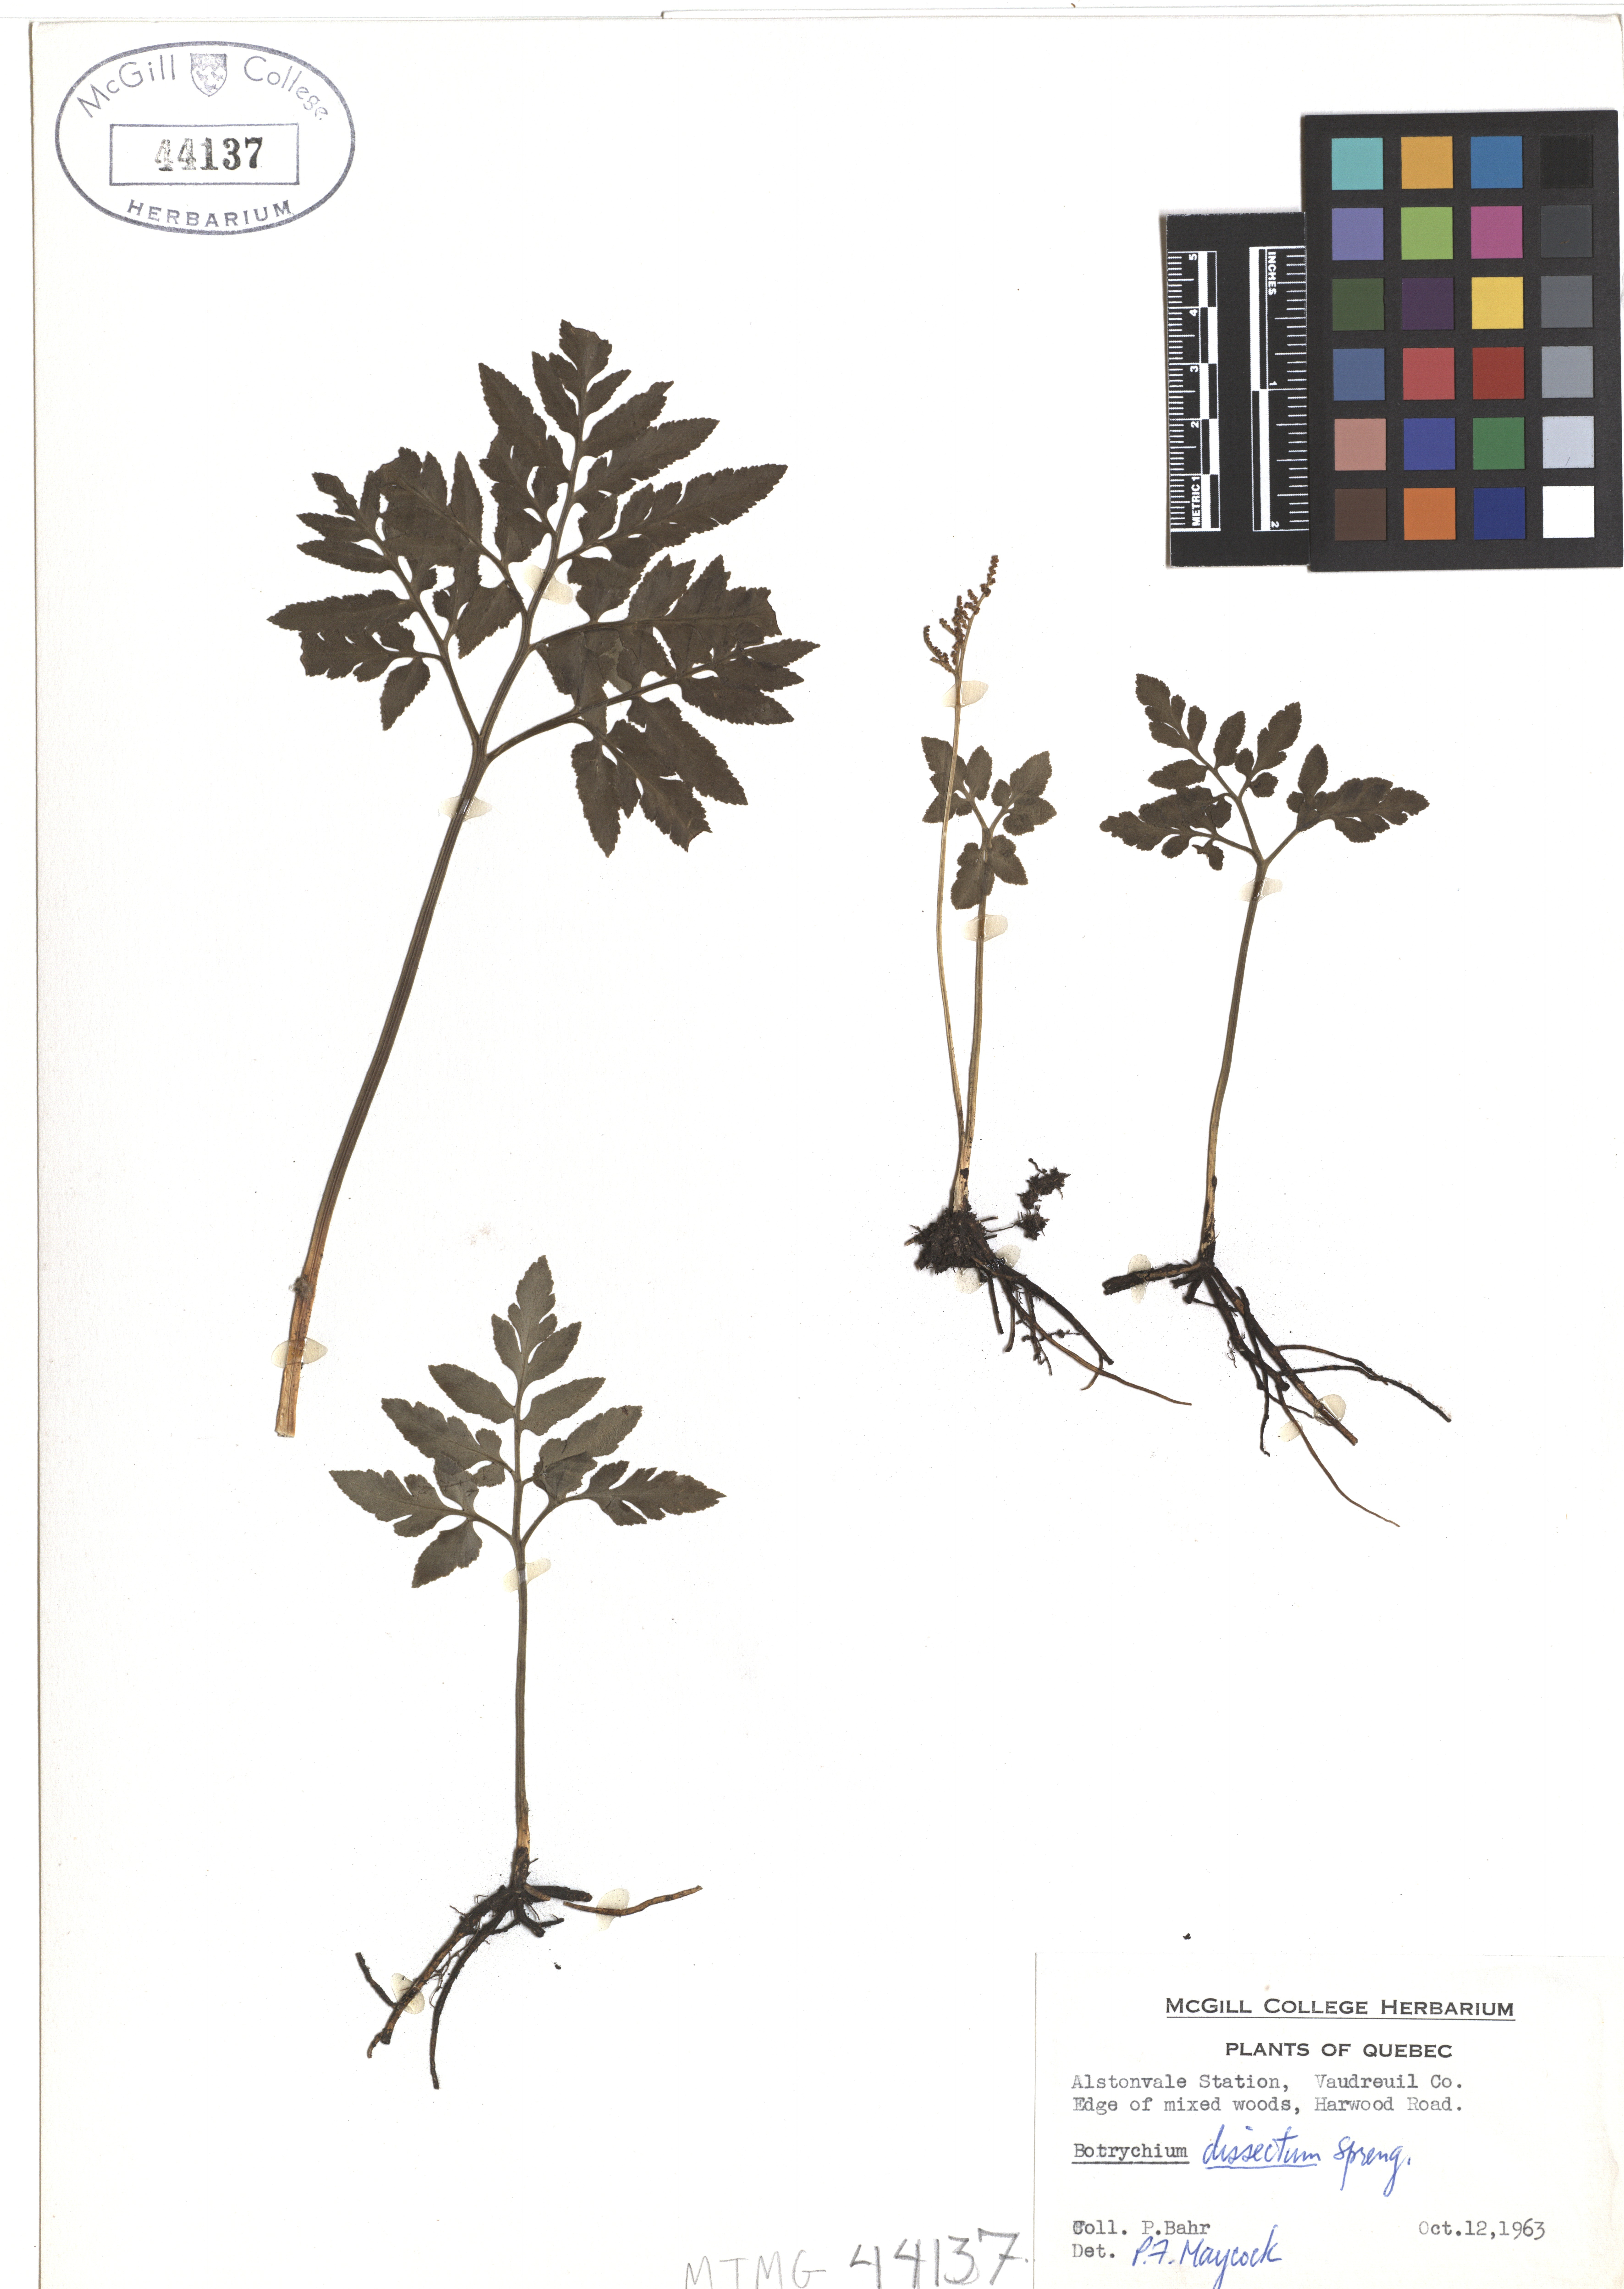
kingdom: Plantae
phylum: Tracheophyta
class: Polypodiopsida
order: Ophioglossales
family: Ophioglossaceae
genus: Sceptridium
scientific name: Sceptridium dissectum
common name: Cut-leaved grapefern
